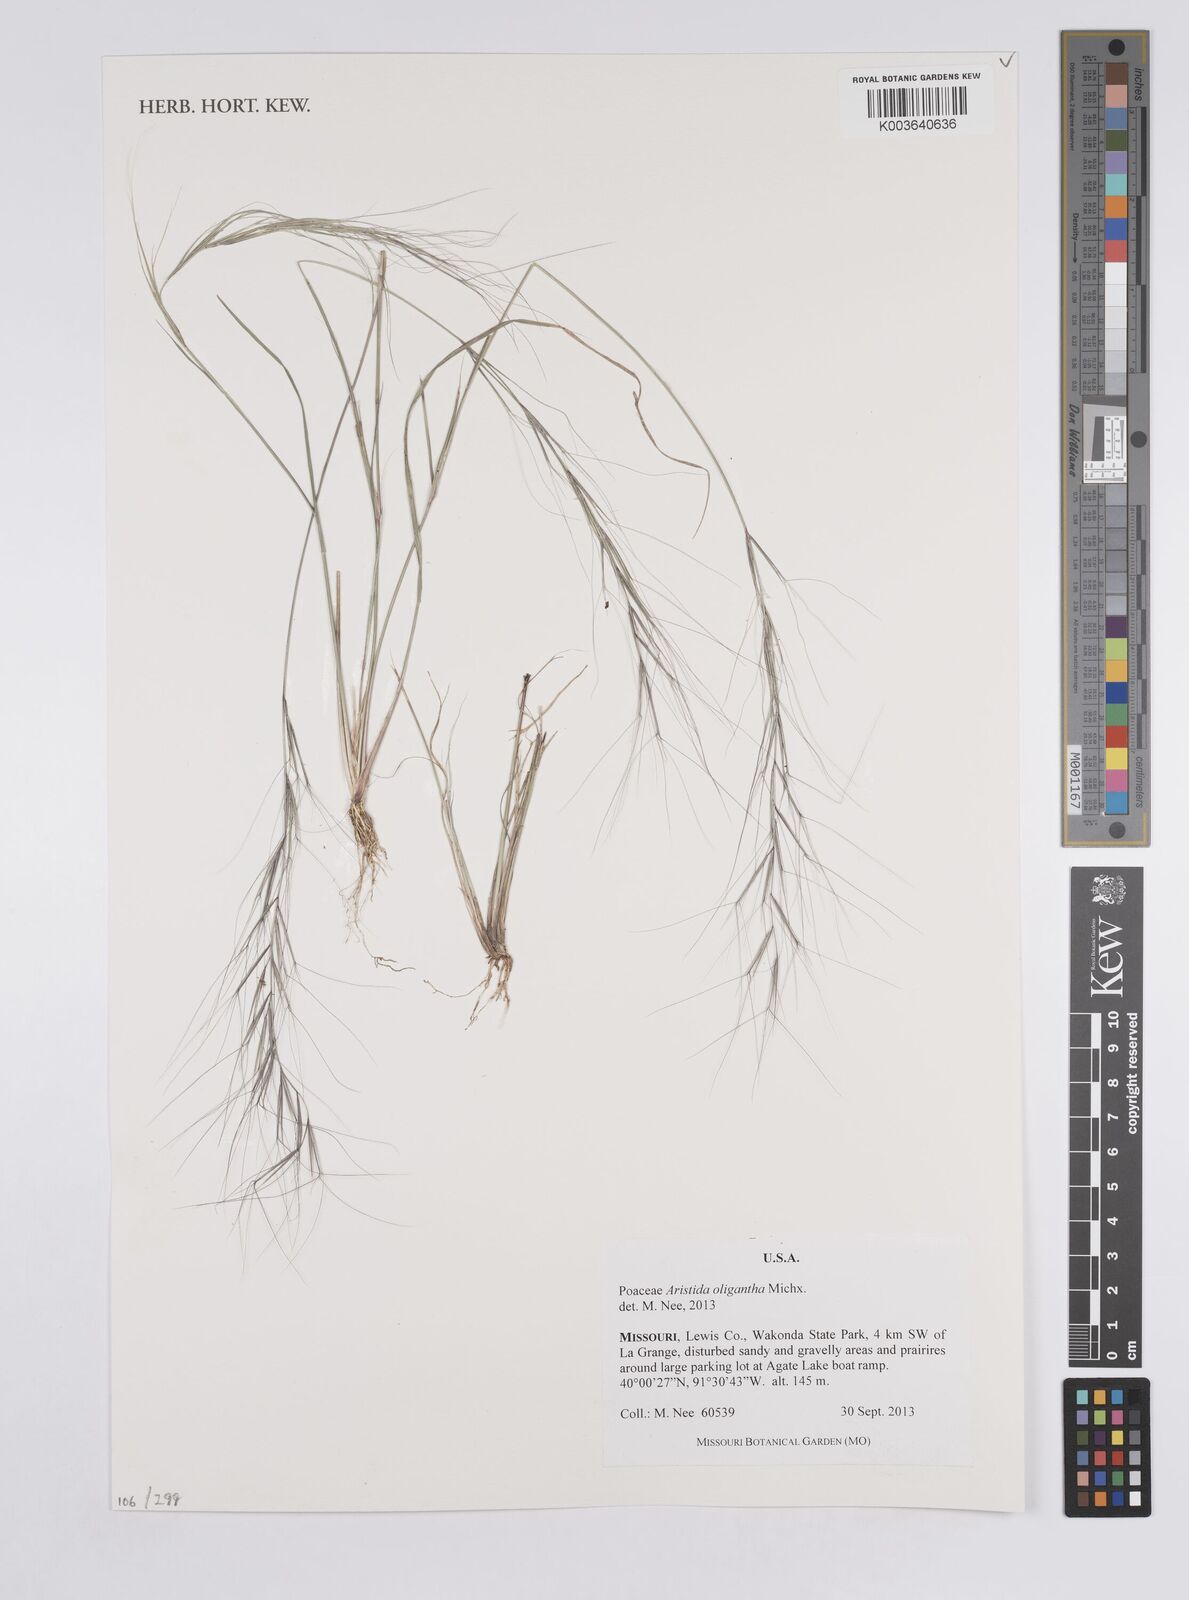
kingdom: Plantae
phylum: Tracheophyta
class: Liliopsida
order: Poales
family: Poaceae
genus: Aristida
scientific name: Aristida oligantha
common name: Few-flowered aristida
